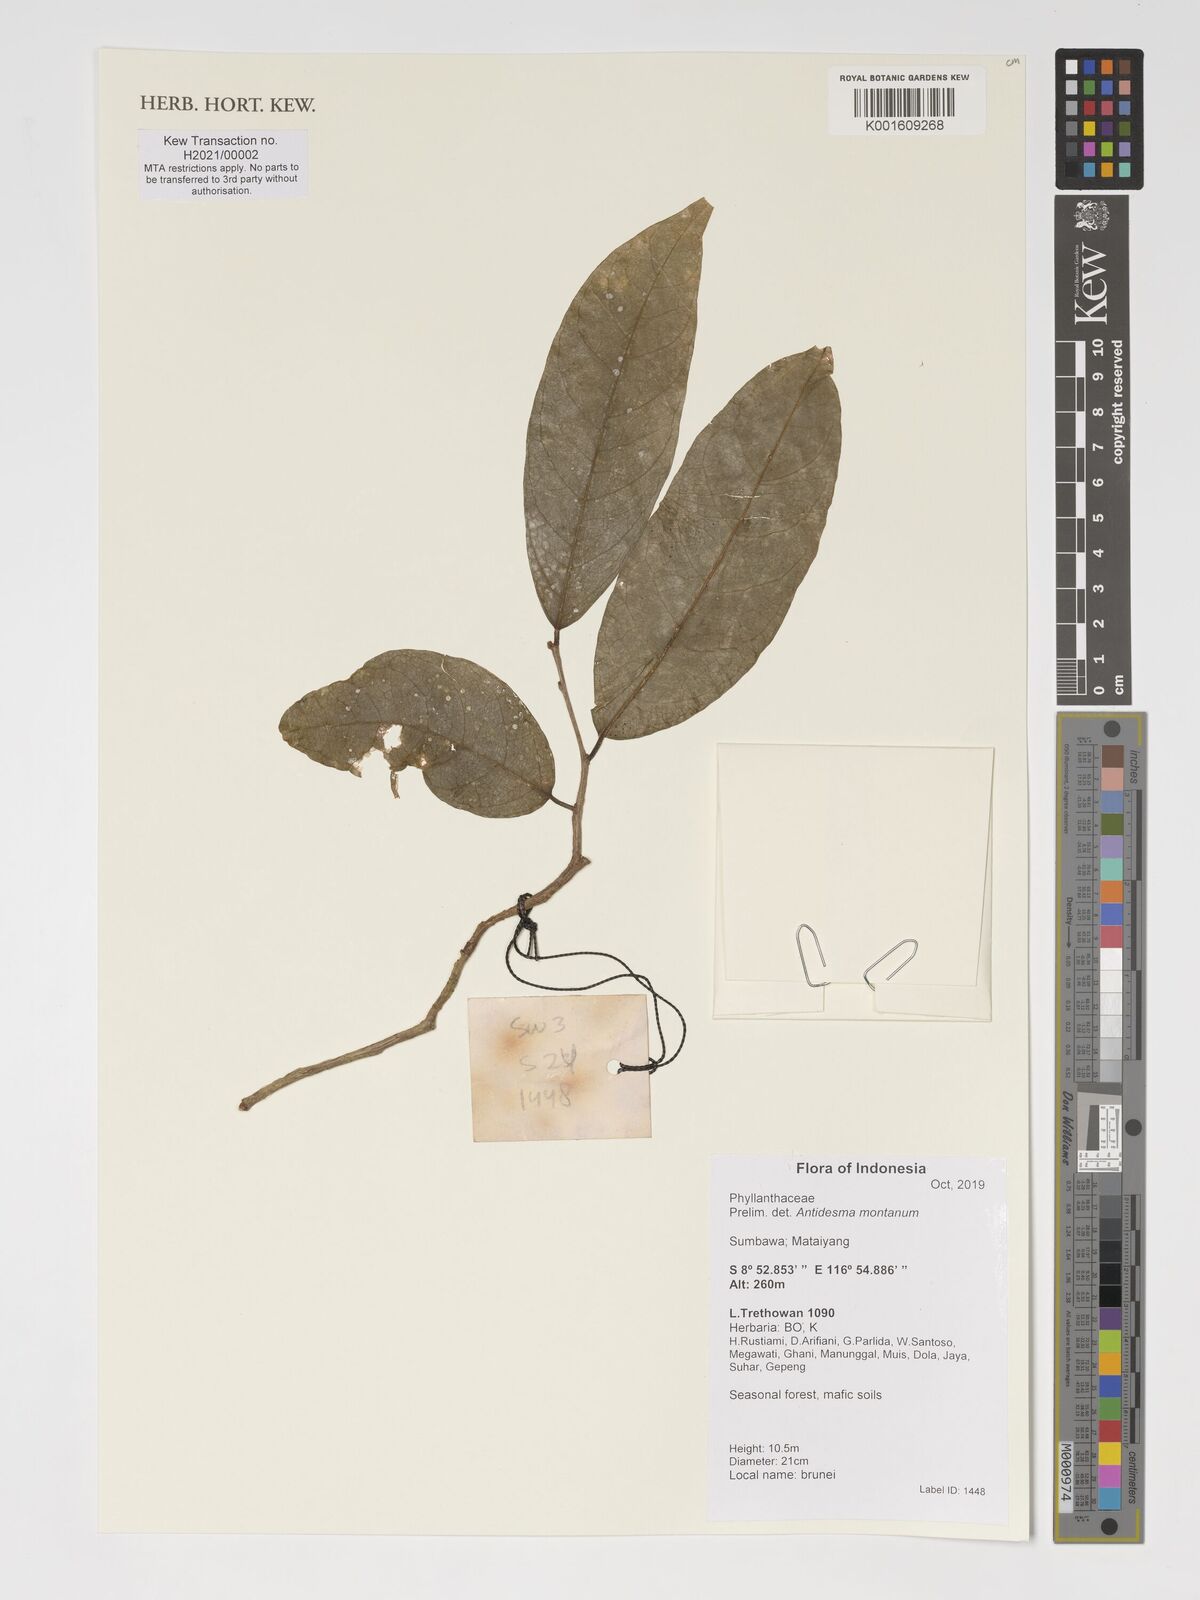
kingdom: Plantae
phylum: Tracheophyta
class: Magnoliopsida
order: Malpighiales
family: Phyllanthaceae
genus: Antidesma
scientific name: Antidesma montanum
